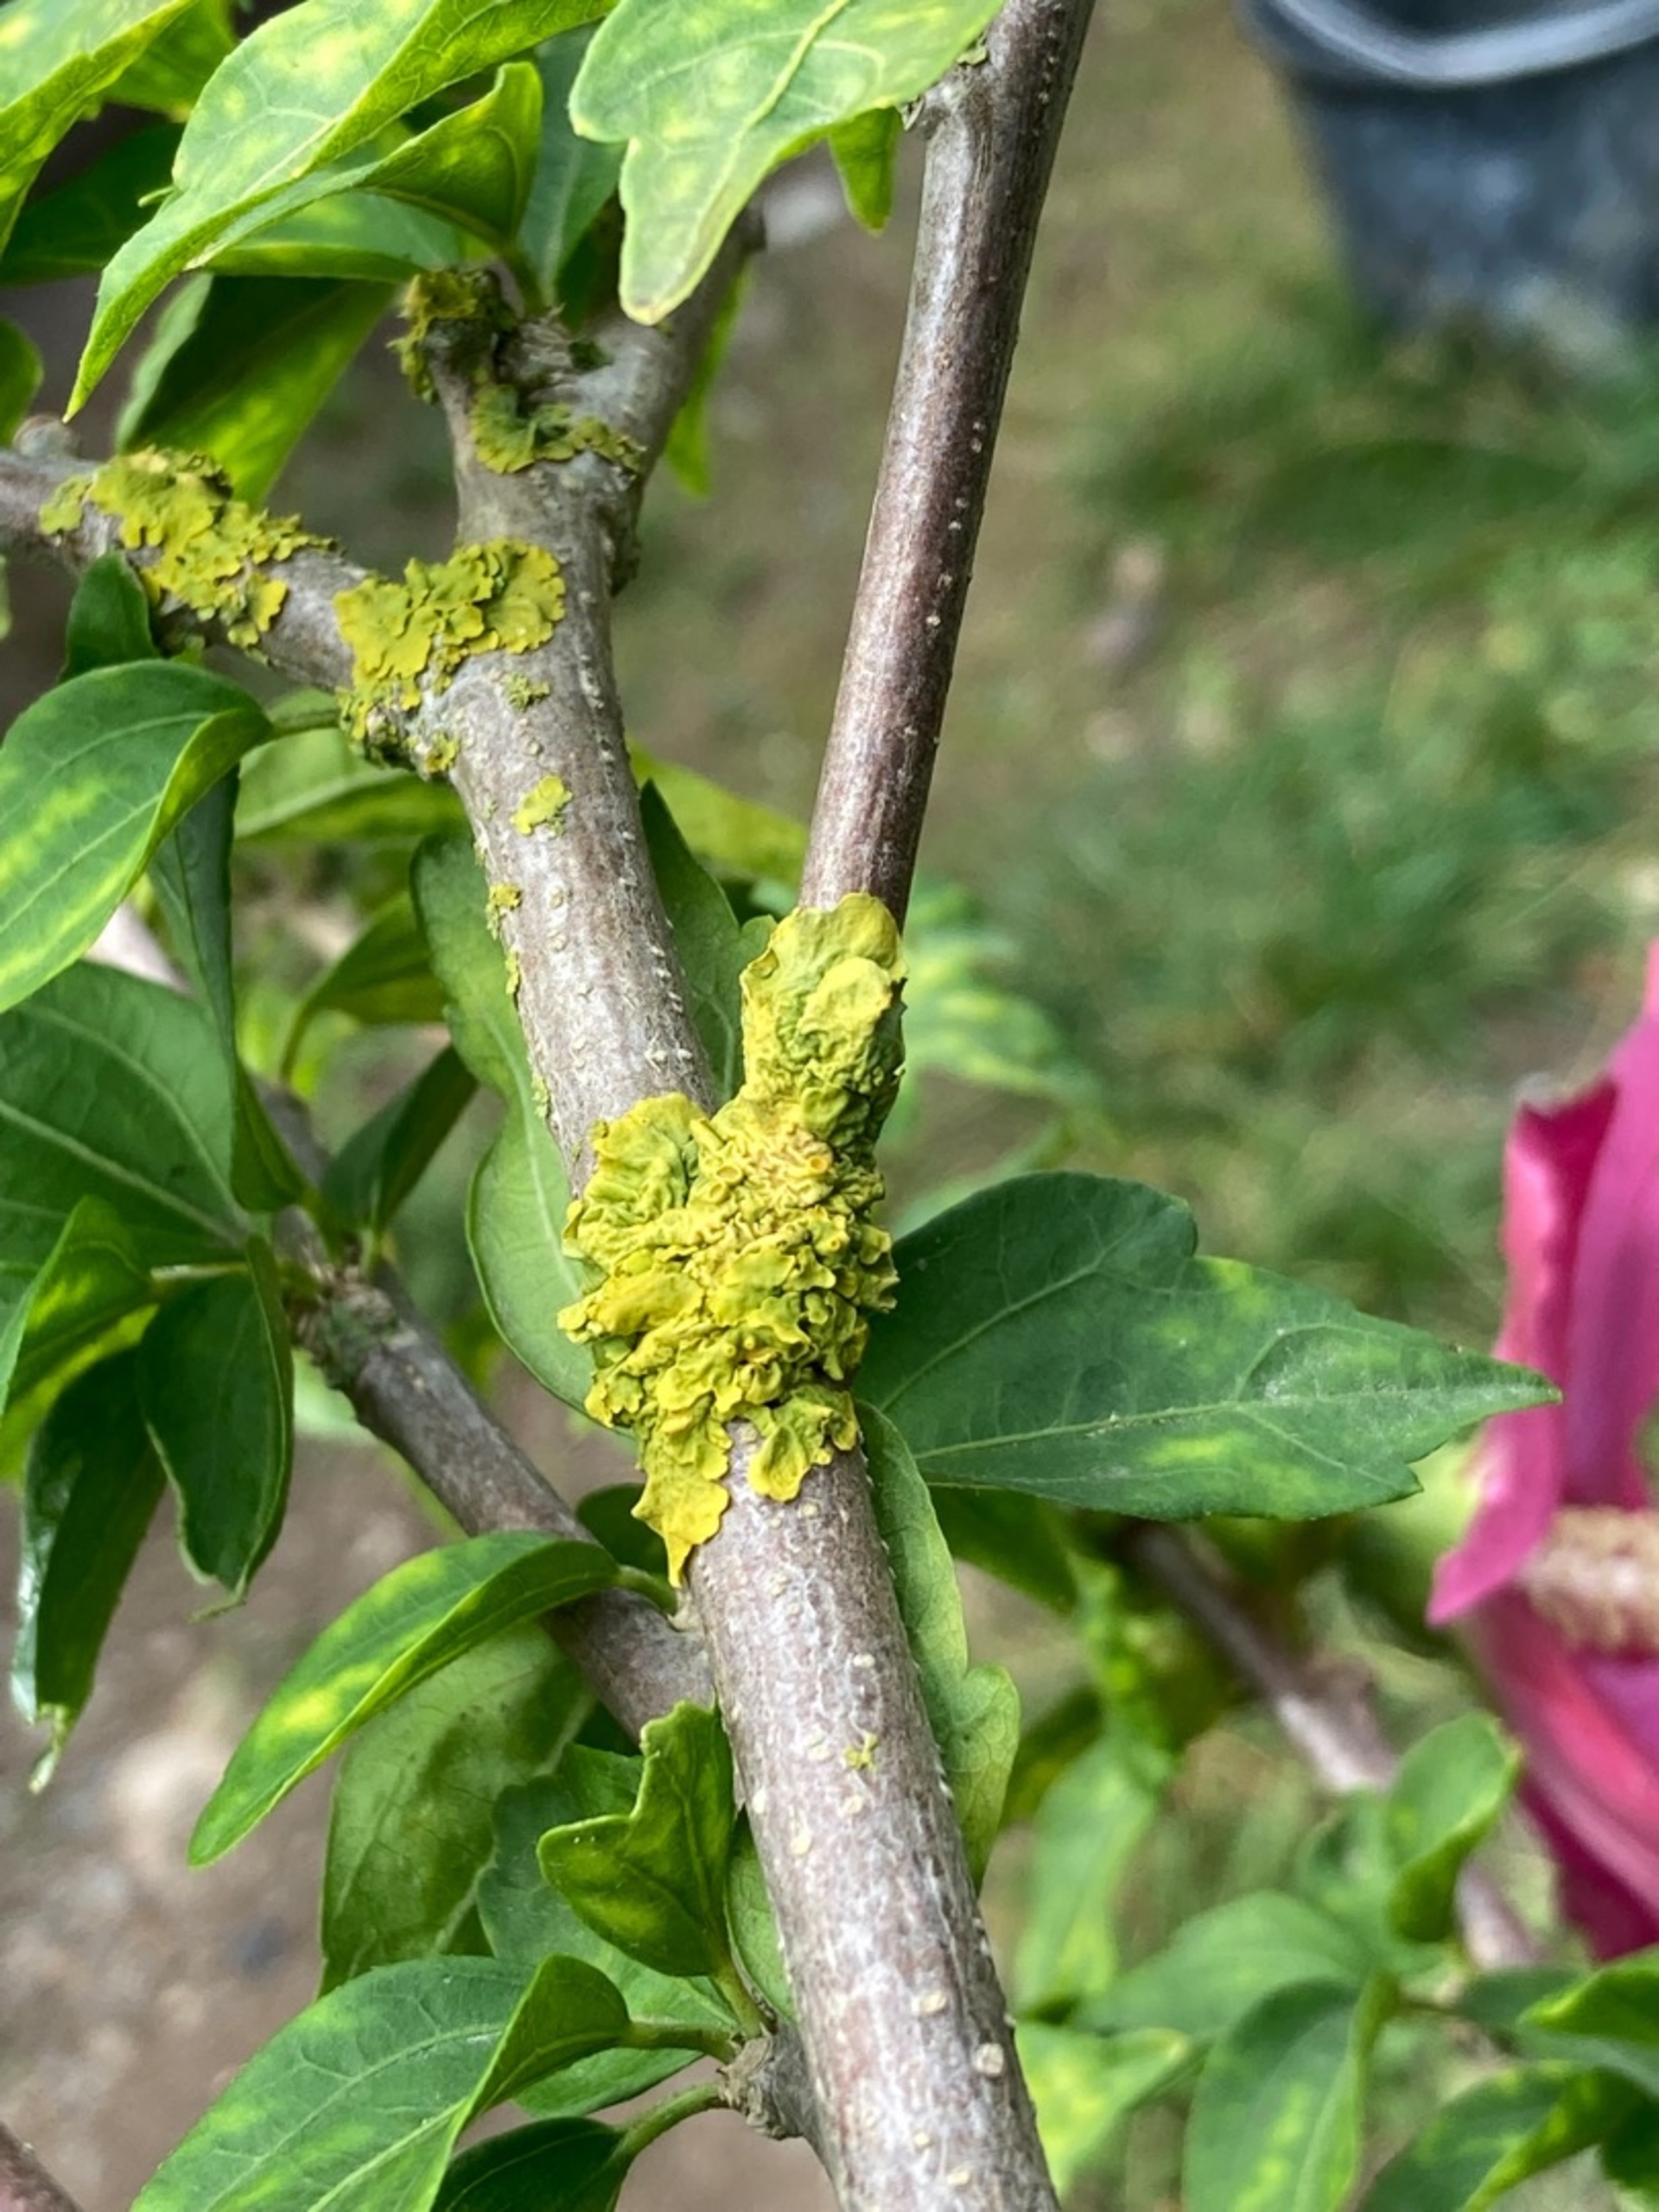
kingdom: Fungi
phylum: Ascomycota
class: Lecanoromycetes
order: Teloschistales
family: Teloschistaceae
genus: Xanthoria
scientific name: Xanthoria parietina
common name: Almindelig væggelav
